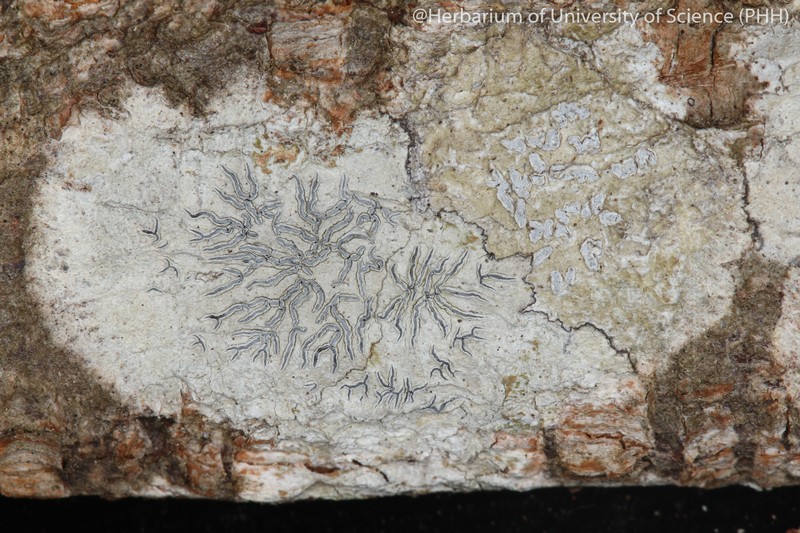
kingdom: Fungi
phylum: Ascomycota
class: Lecanoromycetes
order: Ostropales
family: Graphidaceae
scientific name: Graphidaceae
